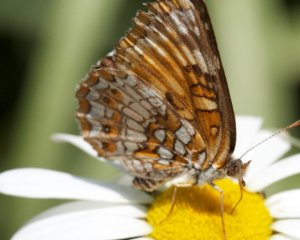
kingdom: Animalia
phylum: Arthropoda
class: Insecta
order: Lepidoptera
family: Nymphalidae
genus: Chlosyne
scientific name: Chlosyne harrisii
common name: Harris's Checkerspot
